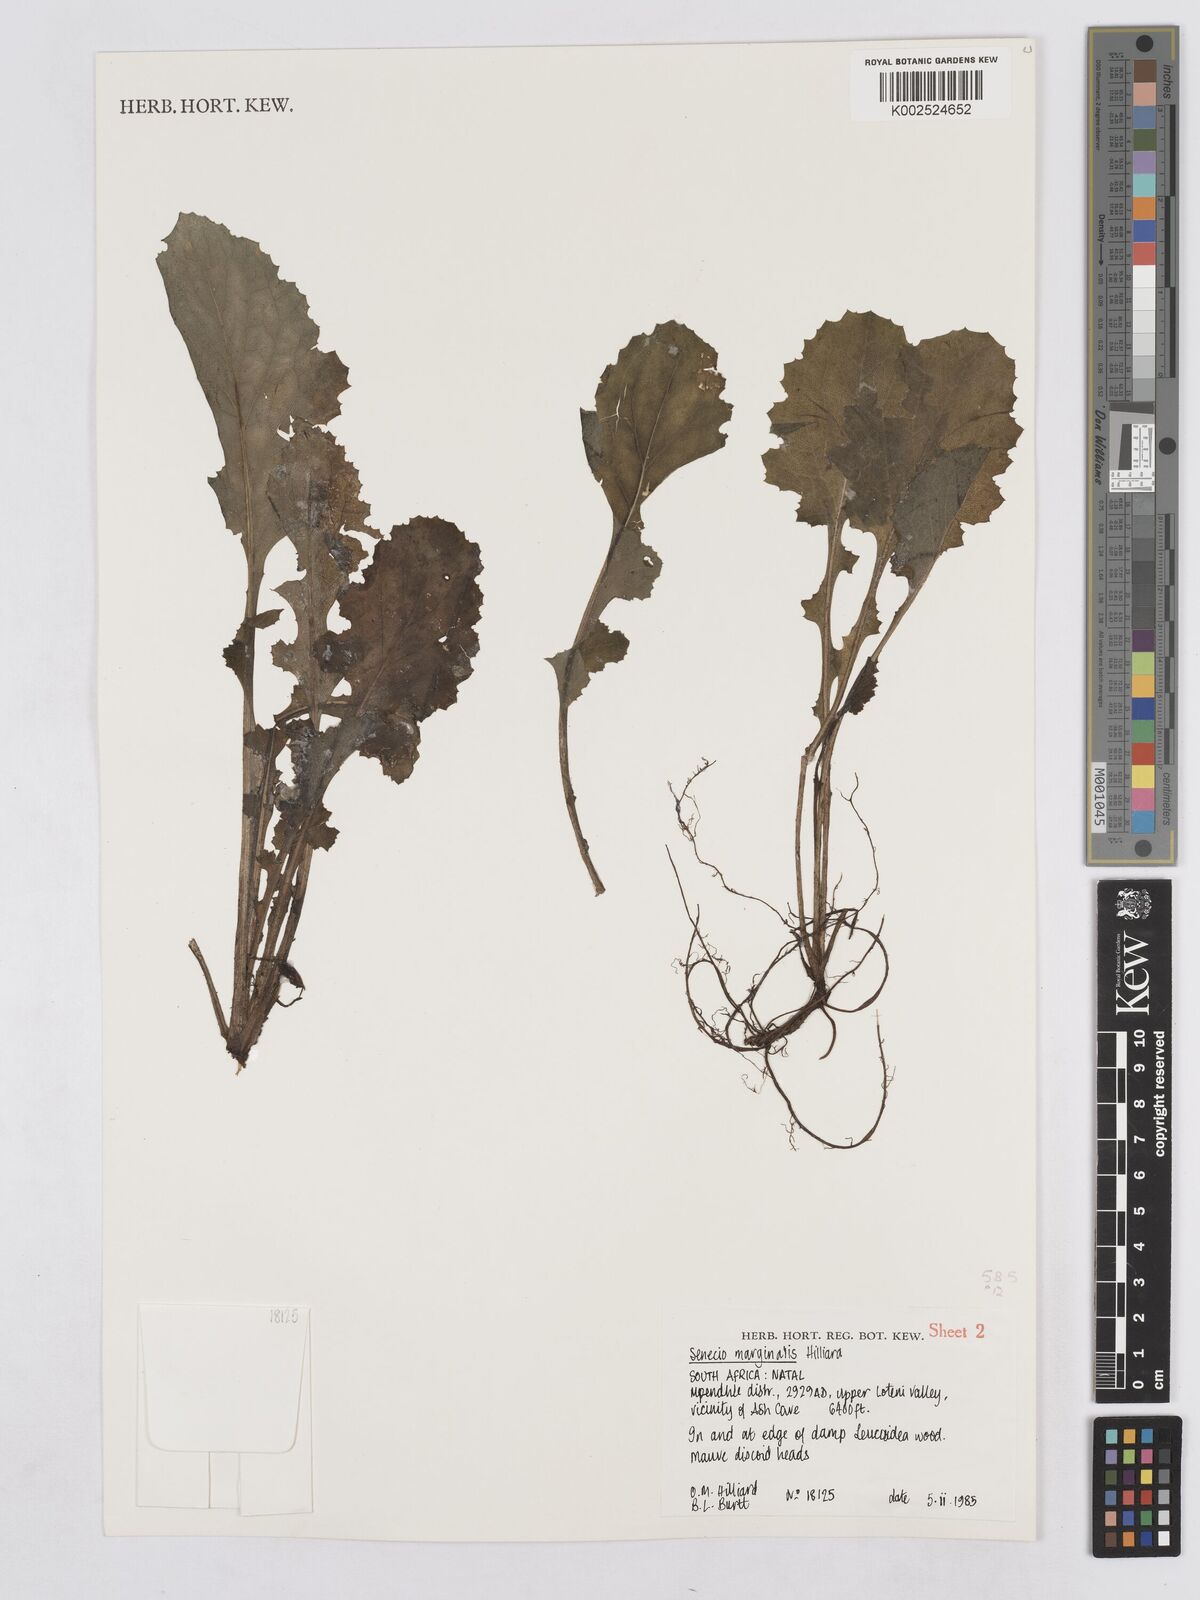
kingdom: Plantae
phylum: Tracheophyta
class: Magnoliopsida
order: Asterales
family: Asteraceae
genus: Senecio
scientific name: Senecio marginalis
